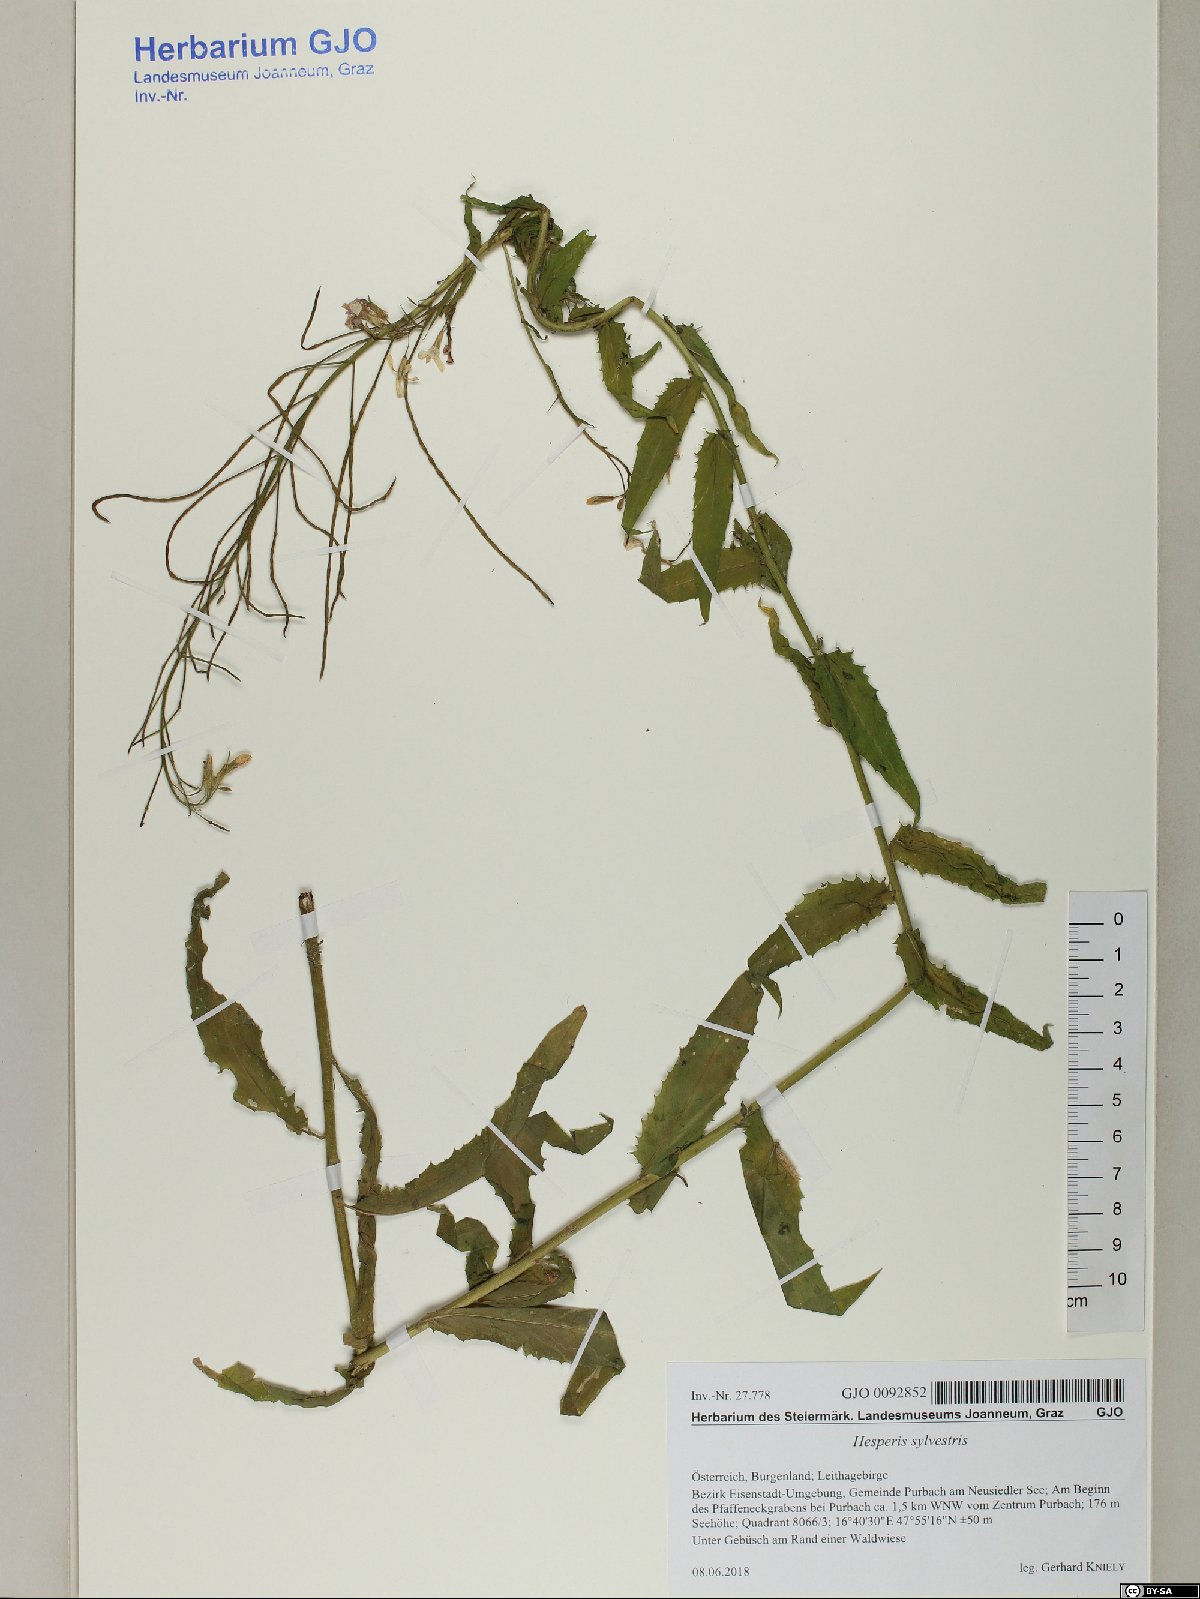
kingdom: Plantae
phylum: Tracheophyta
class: Magnoliopsida
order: Brassicales
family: Brassicaceae
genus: Hesperis
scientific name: Hesperis sylvestris
